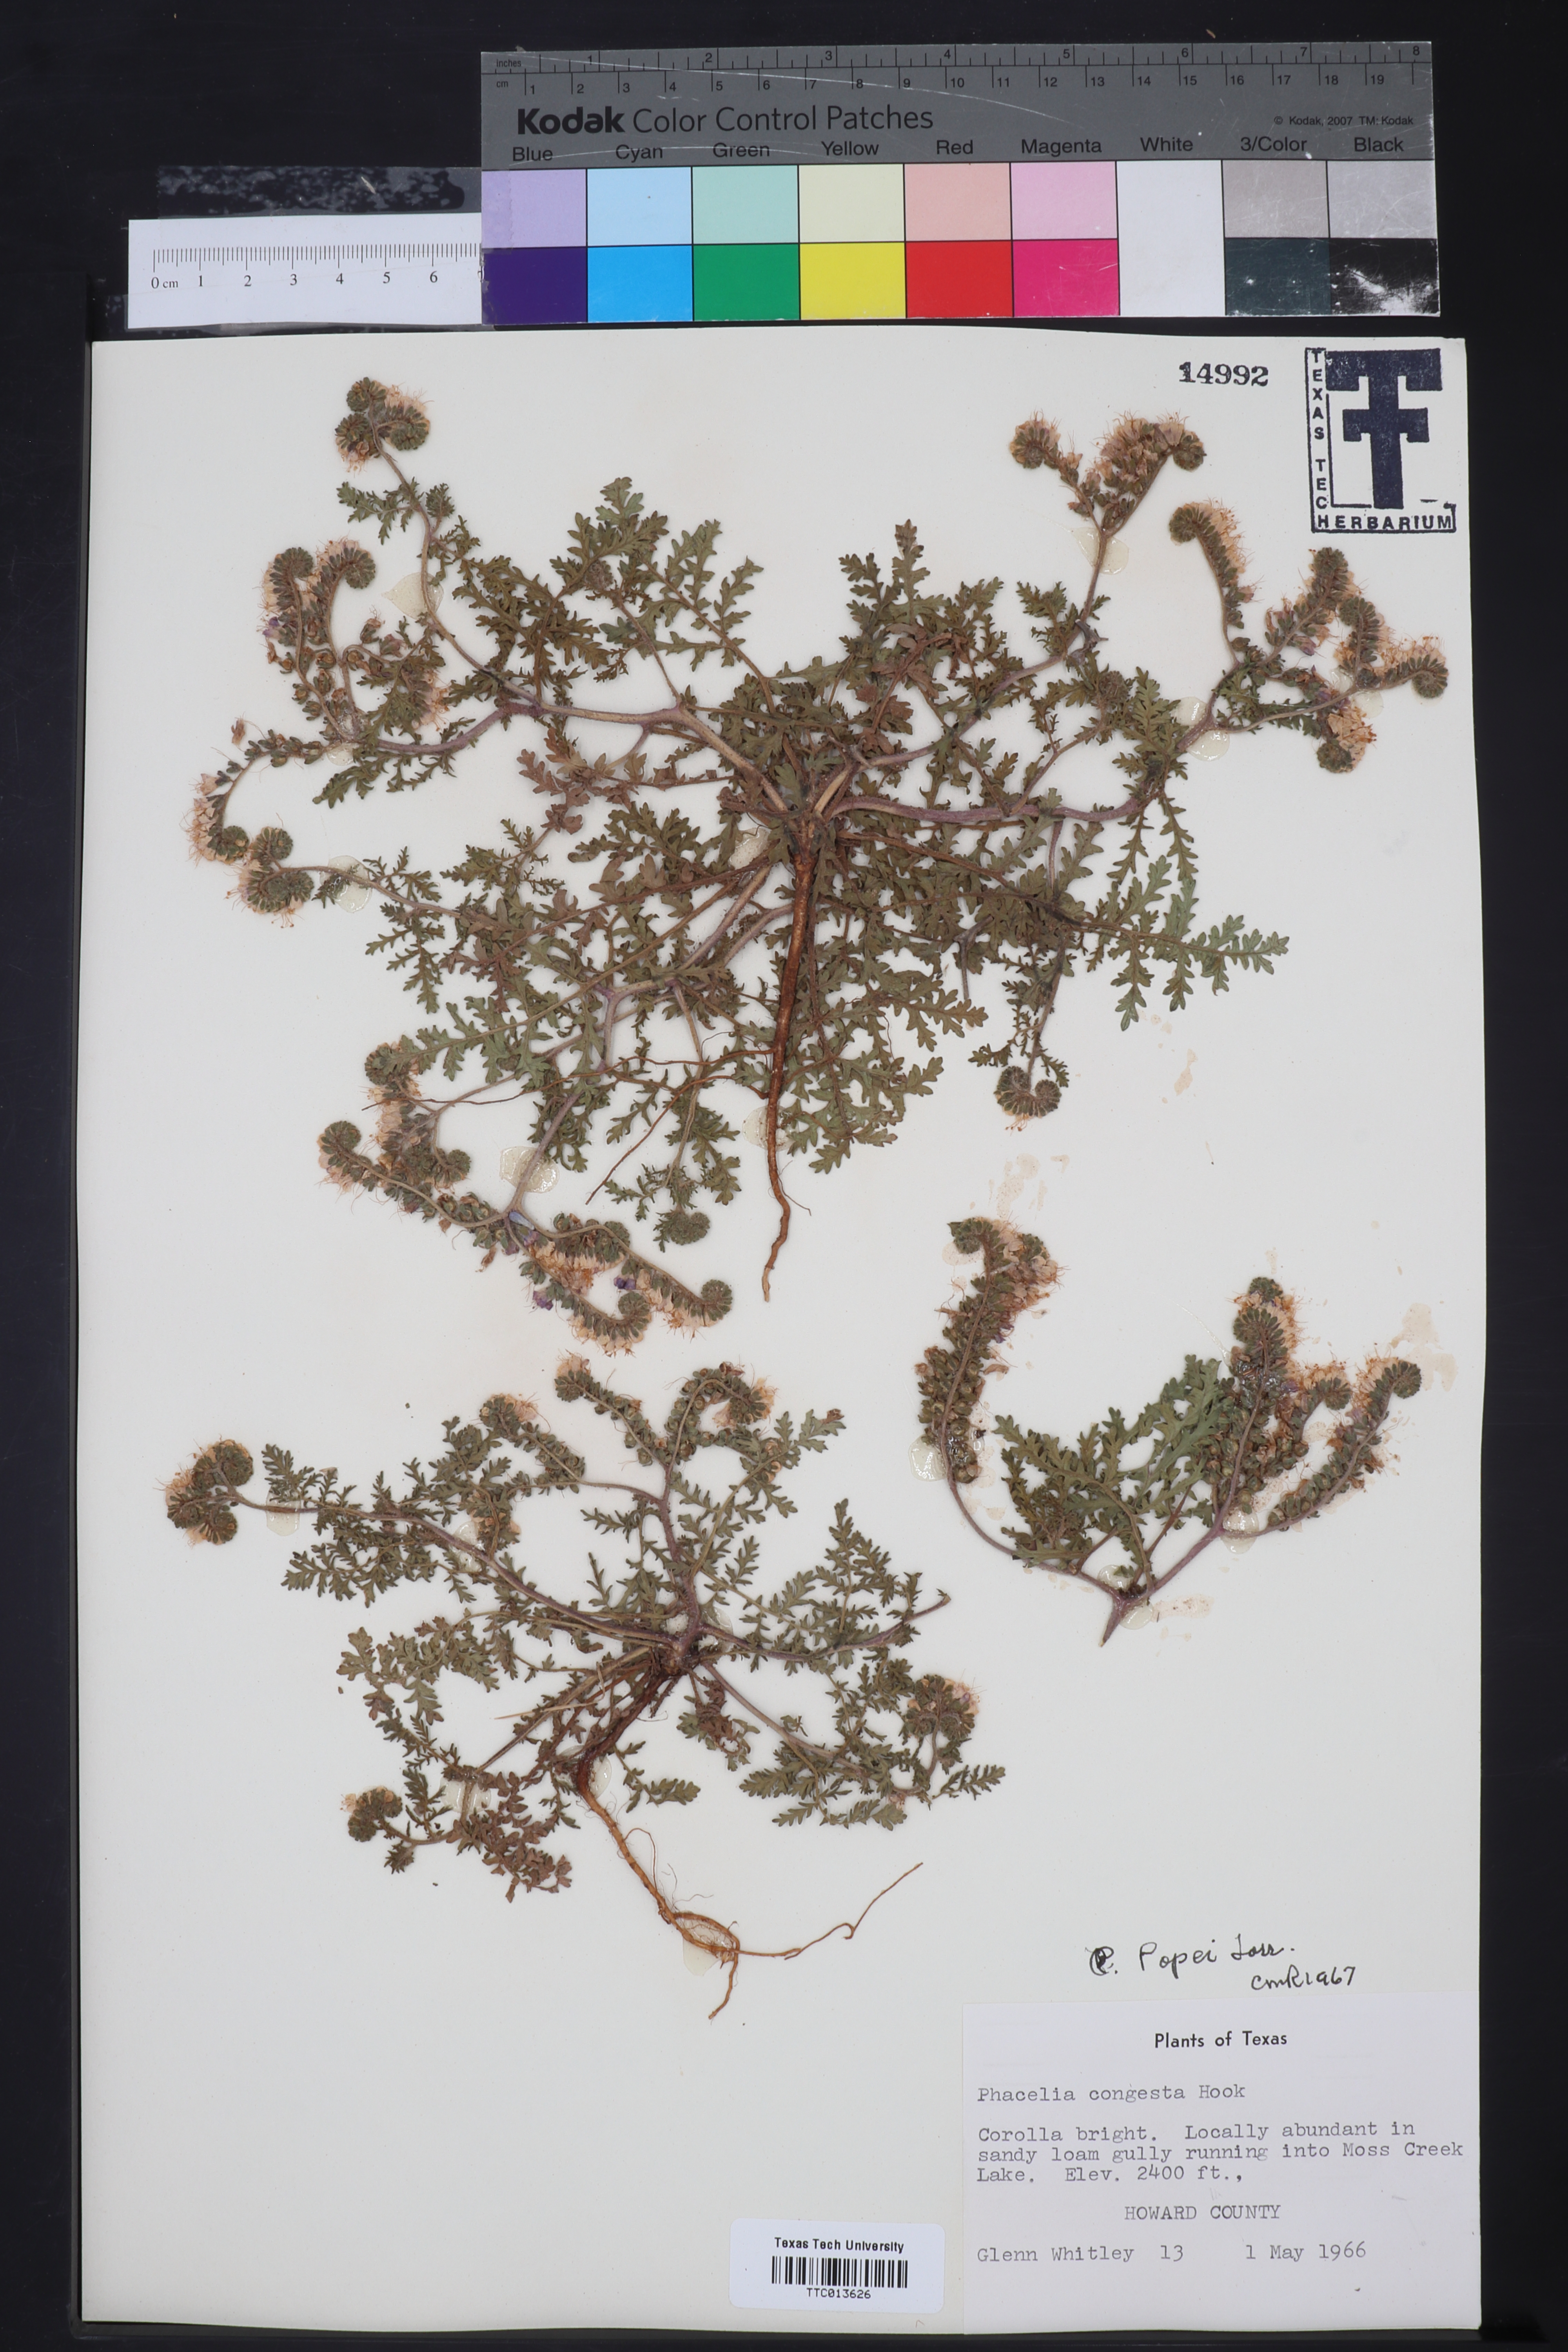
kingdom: Plantae
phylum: Tracheophyta
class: Magnoliopsida
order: Boraginales
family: Hydrophyllaceae
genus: Phacelia
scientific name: Phacelia popei
